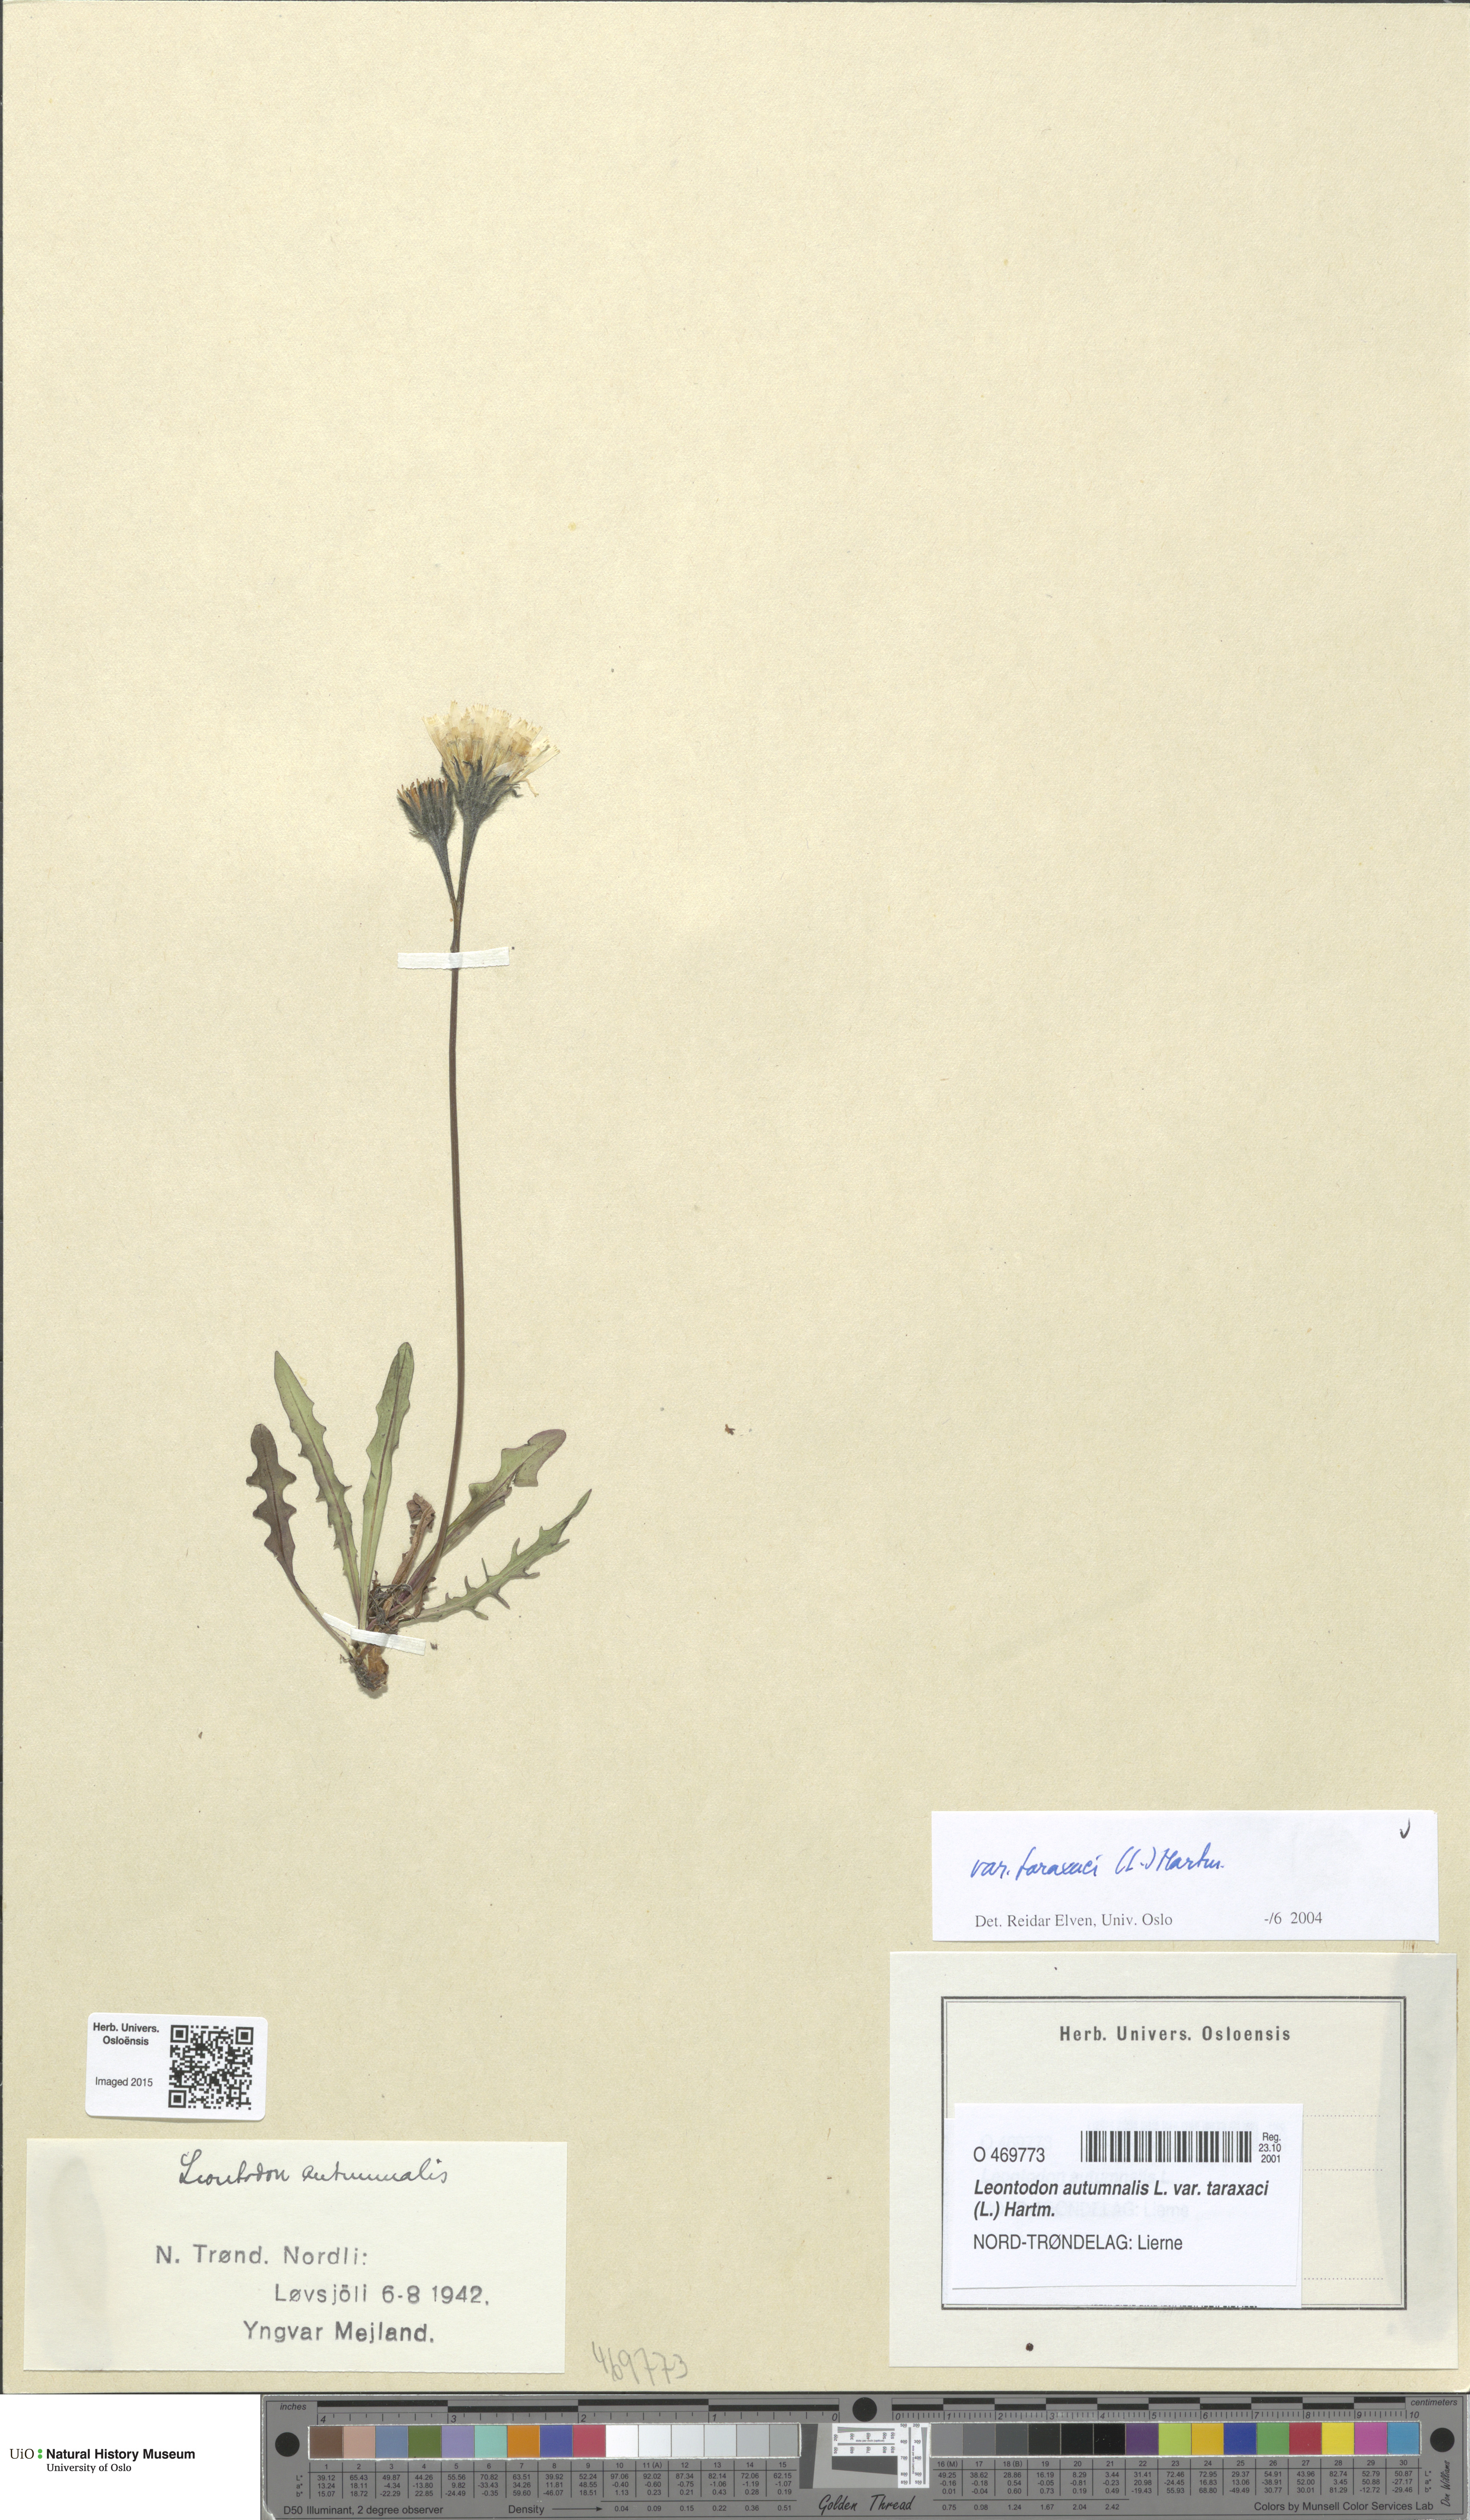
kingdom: Plantae
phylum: Tracheophyta
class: Magnoliopsida
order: Asterales
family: Asteraceae
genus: Scorzoneroides
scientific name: Scorzoneroides autumnalis
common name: Autumn hawkbit
